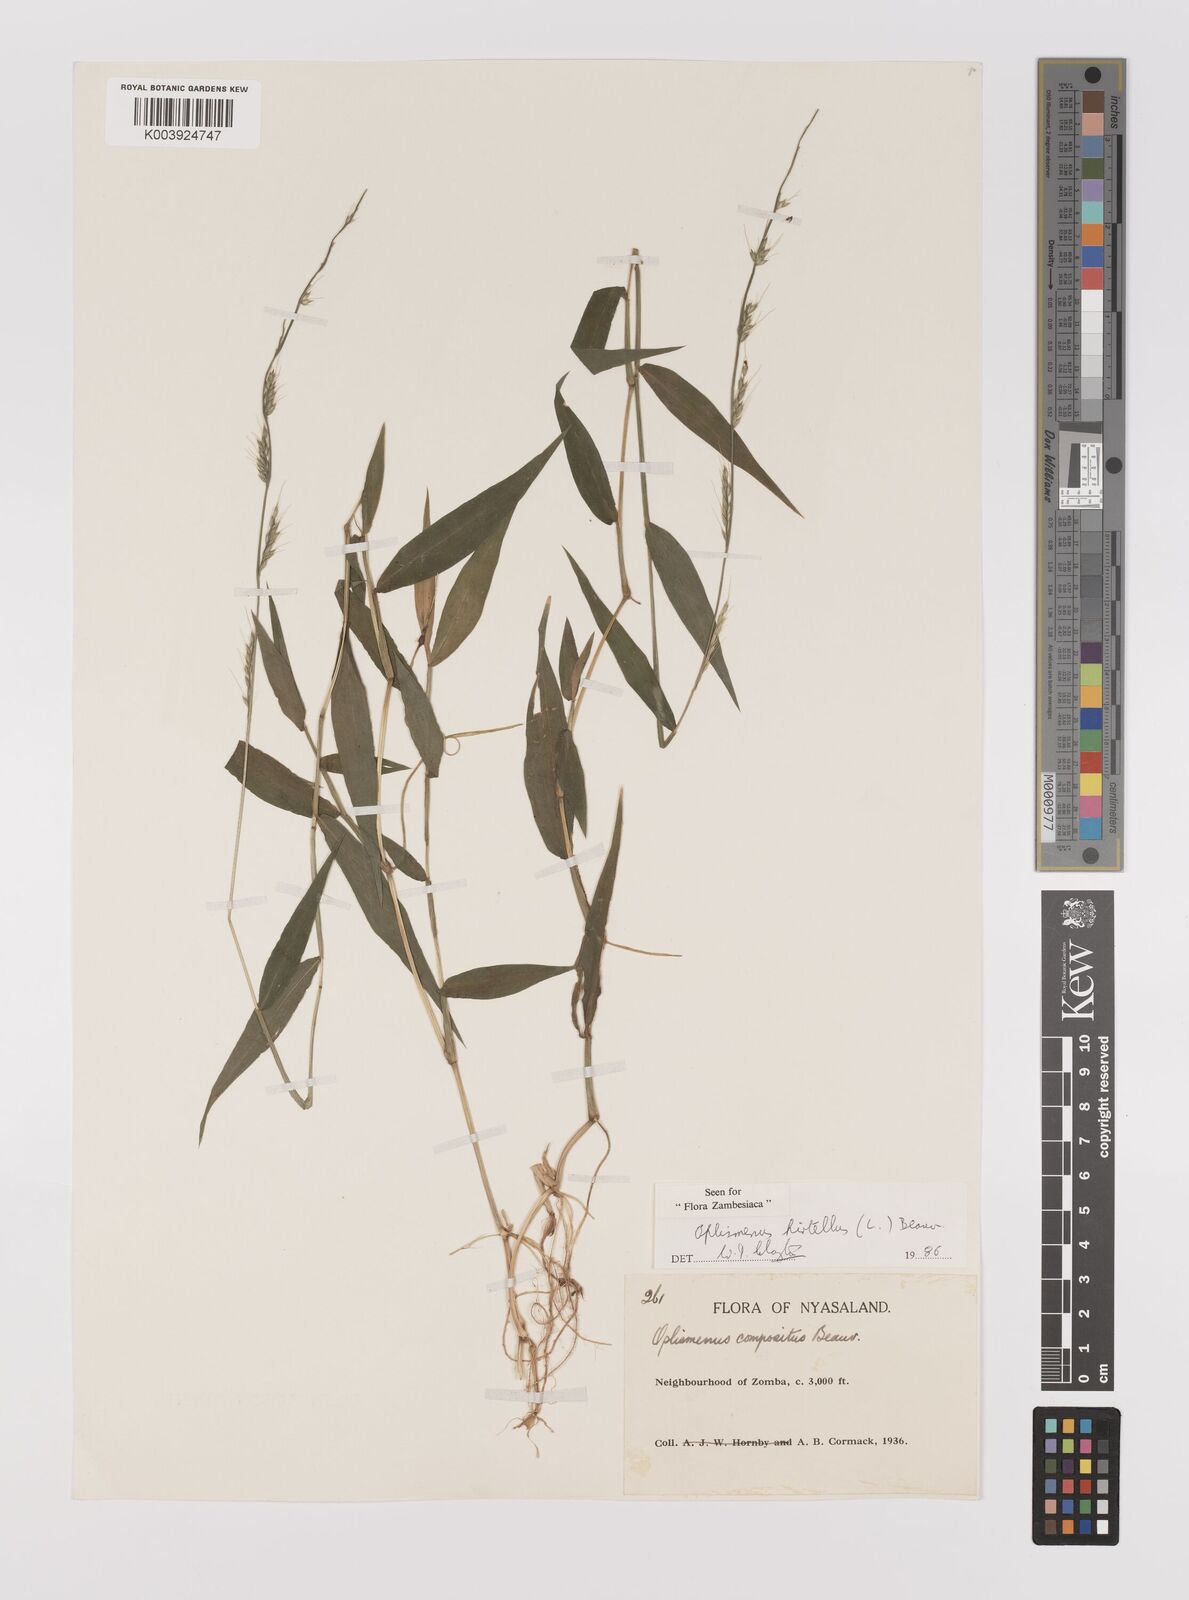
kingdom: Plantae
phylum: Tracheophyta
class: Liliopsida
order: Poales
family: Poaceae
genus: Oplismenus
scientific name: Oplismenus hirtellus
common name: Basketgrass
